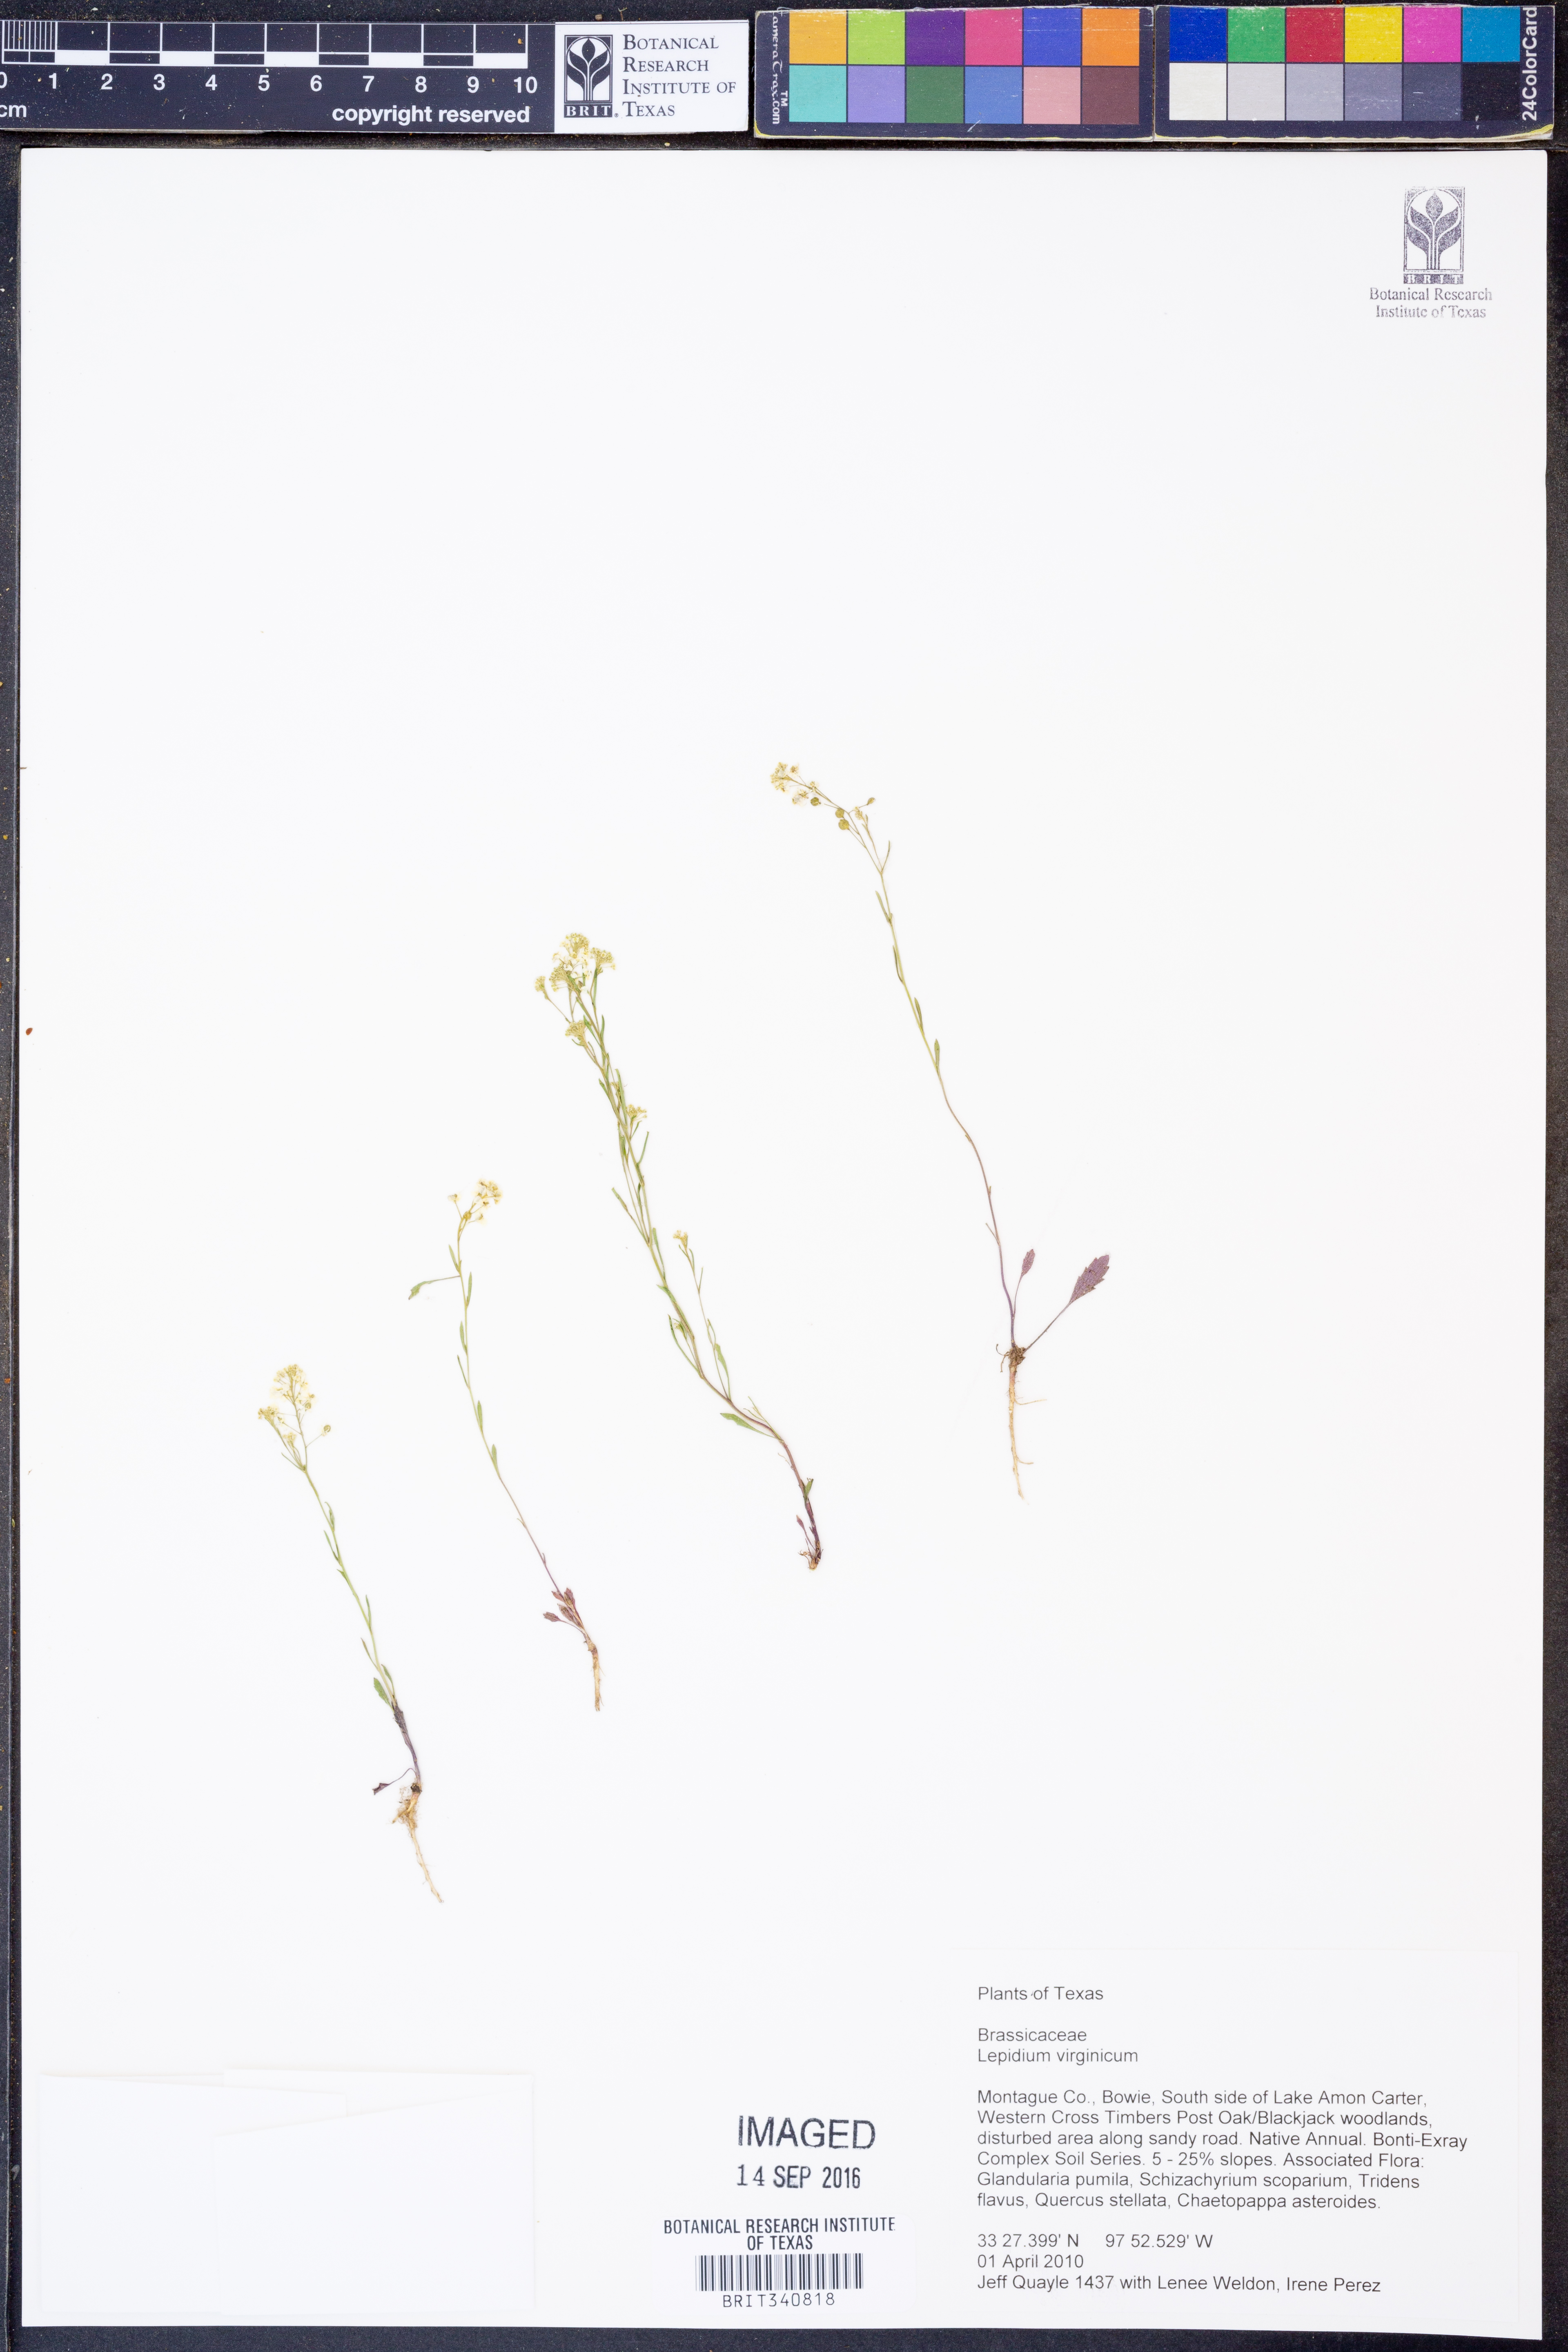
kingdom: Plantae
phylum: Tracheophyta
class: Magnoliopsida
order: Brassicales
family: Brassicaceae
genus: Lepidium
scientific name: Lepidium virginicum
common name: Least pepperwort
